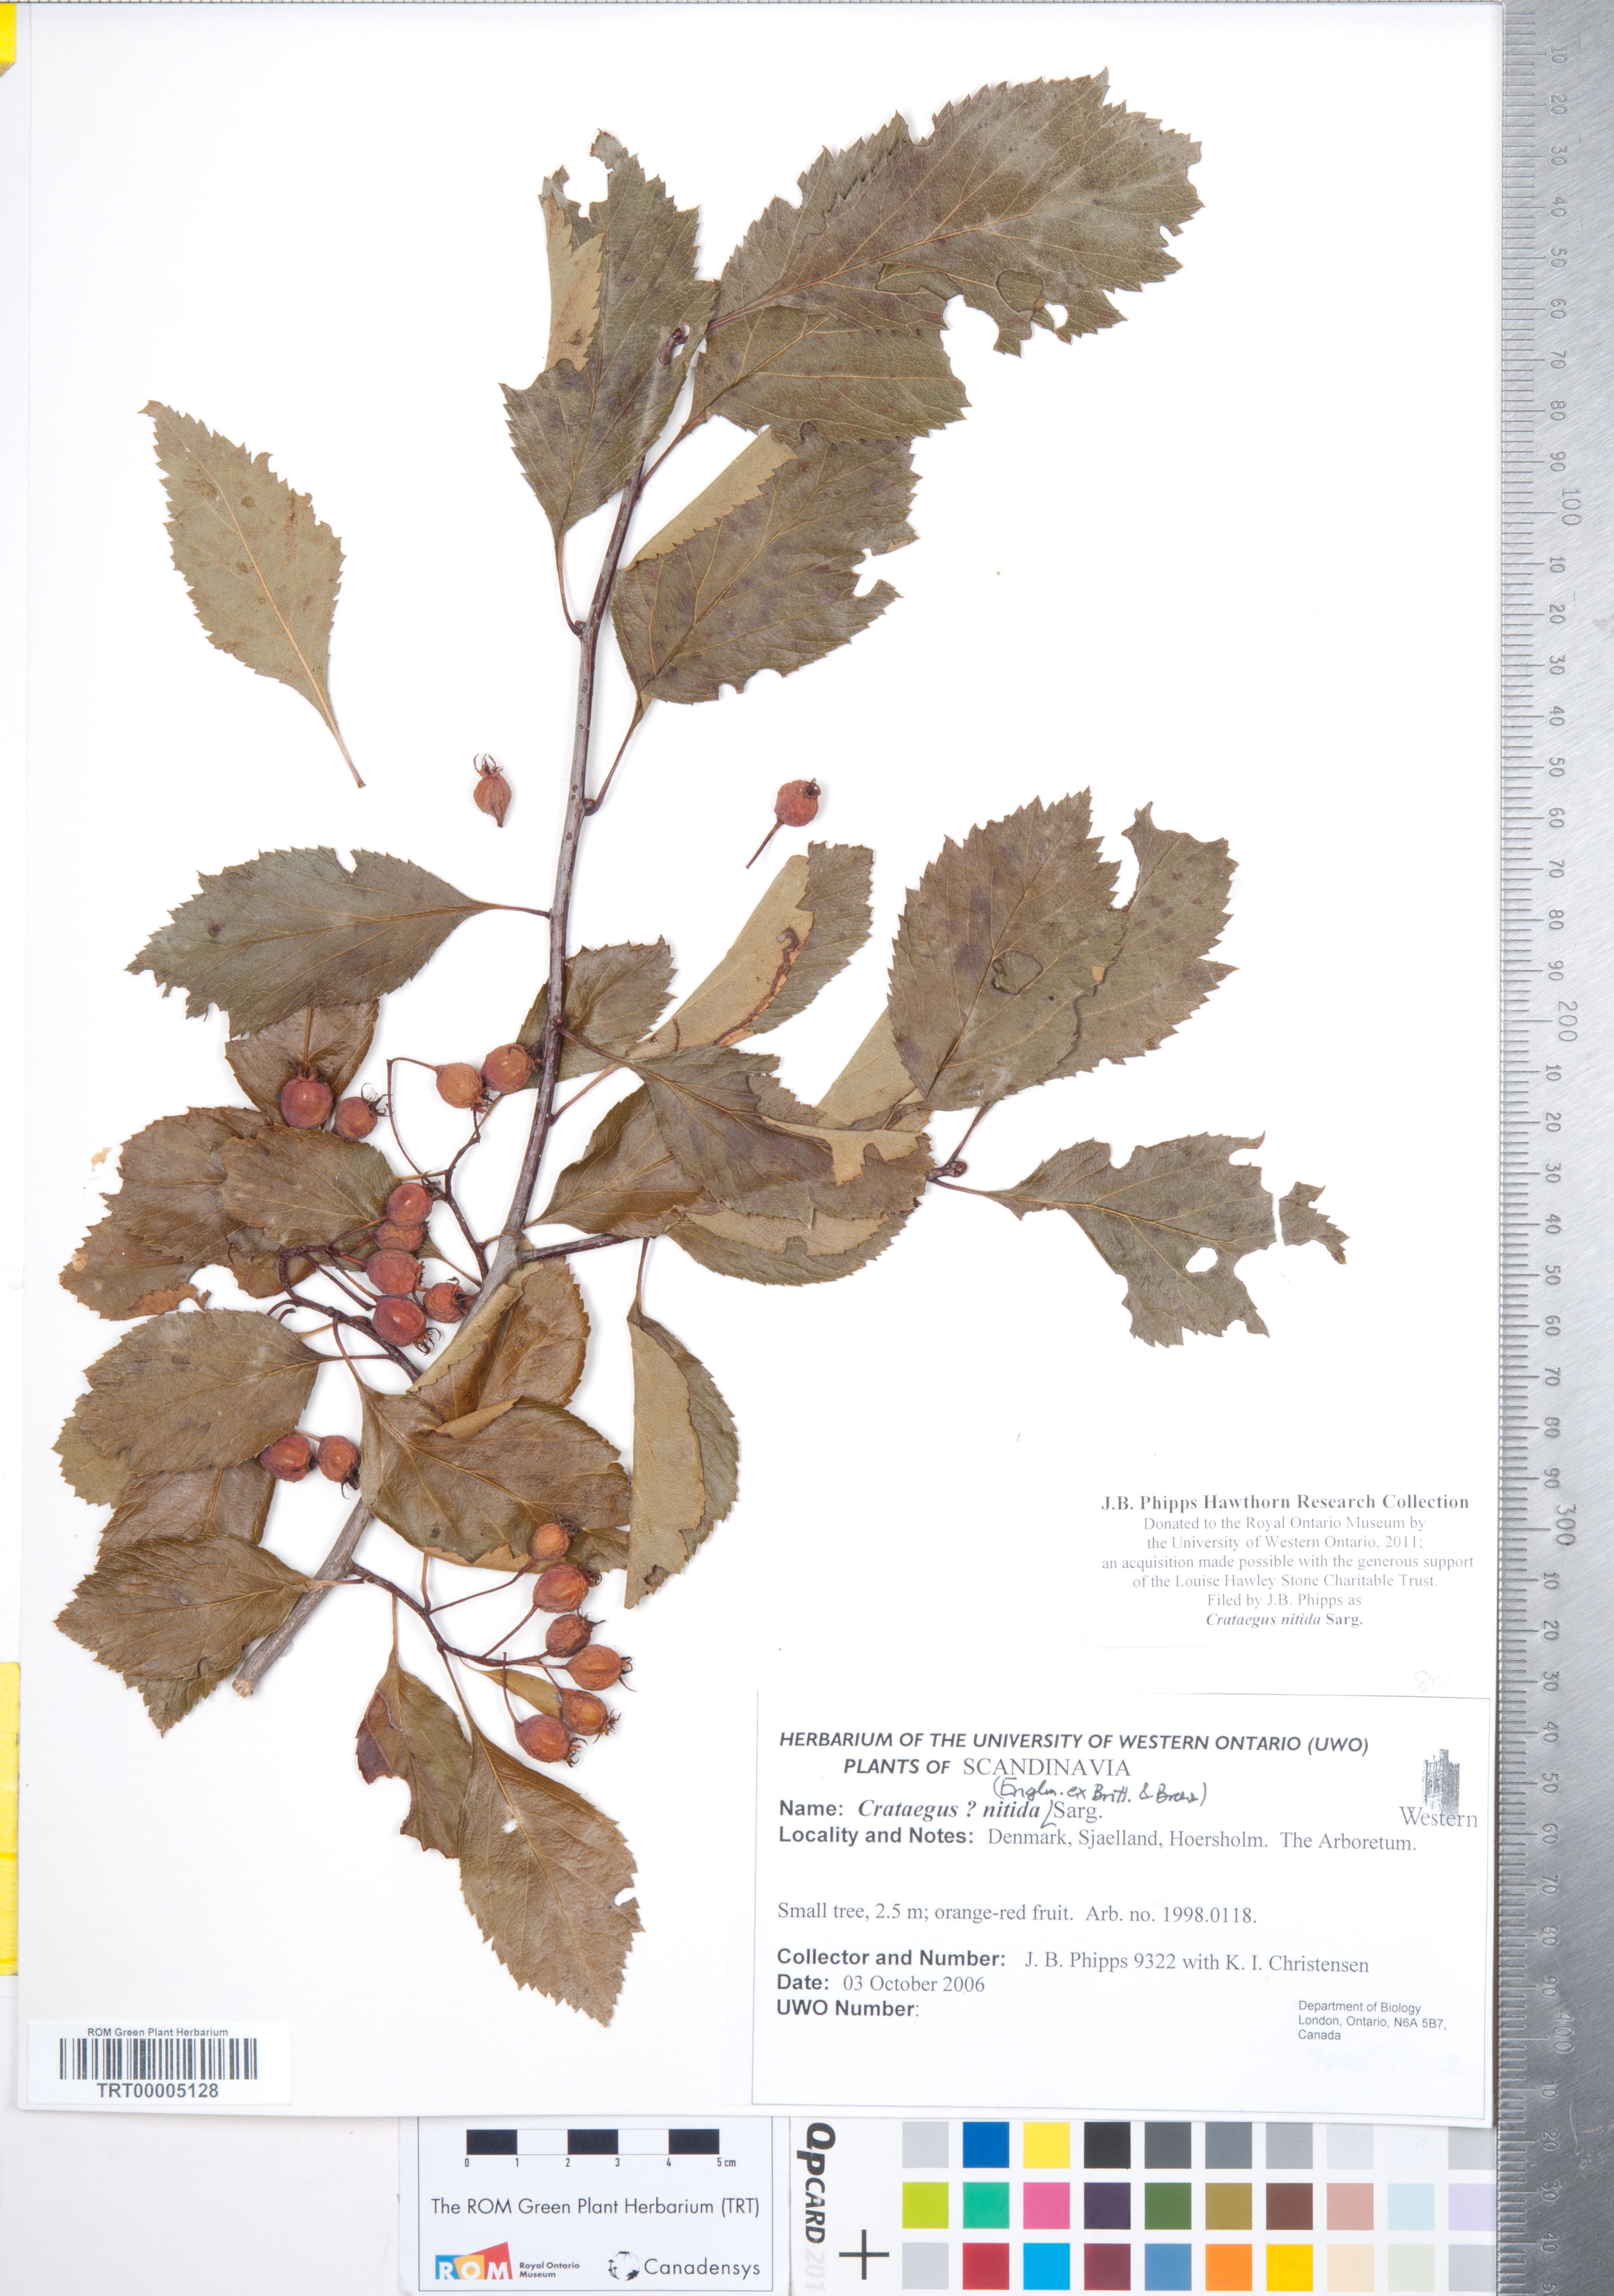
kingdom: Plantae
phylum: Tracheophyta
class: Magnoliopsida
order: Rosales
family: Rosaceae
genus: Crataegus
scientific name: Crataegus nitida
